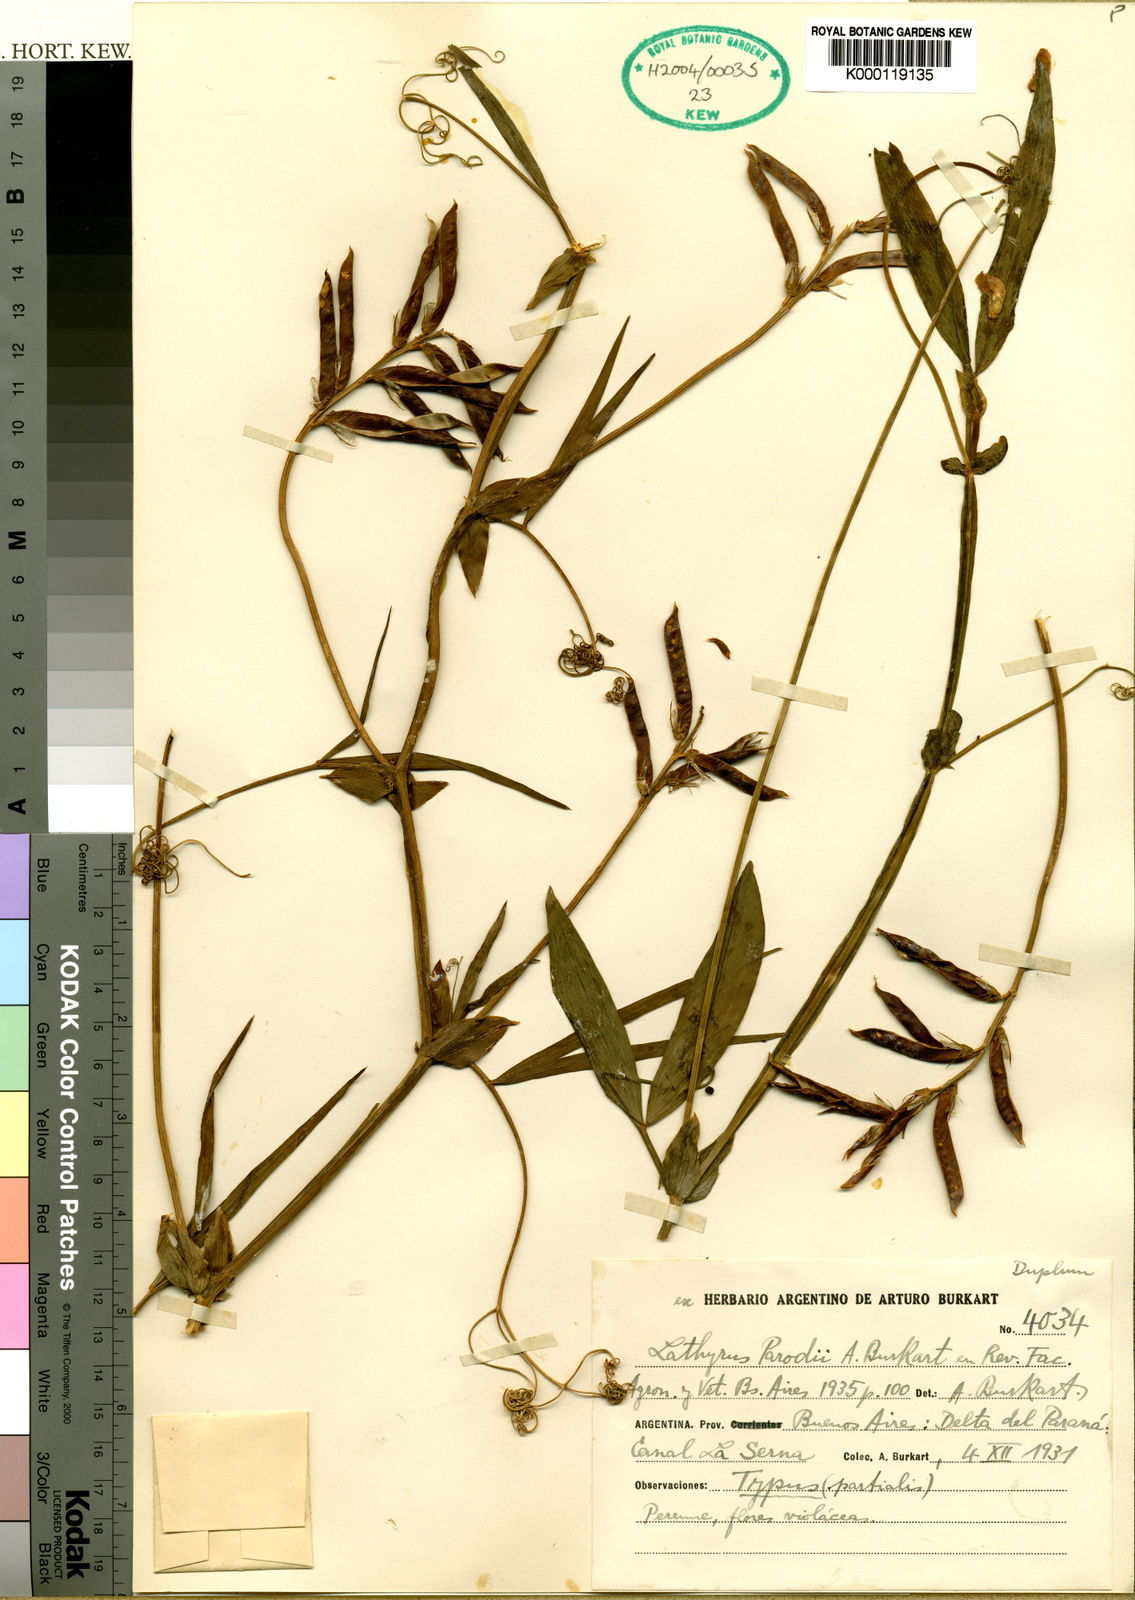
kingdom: Plantae
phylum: Tracheophyta
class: Magnoliopsida
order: Fabales
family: Fabaceae
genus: Lathyrus
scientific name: Lathyrus parodii
